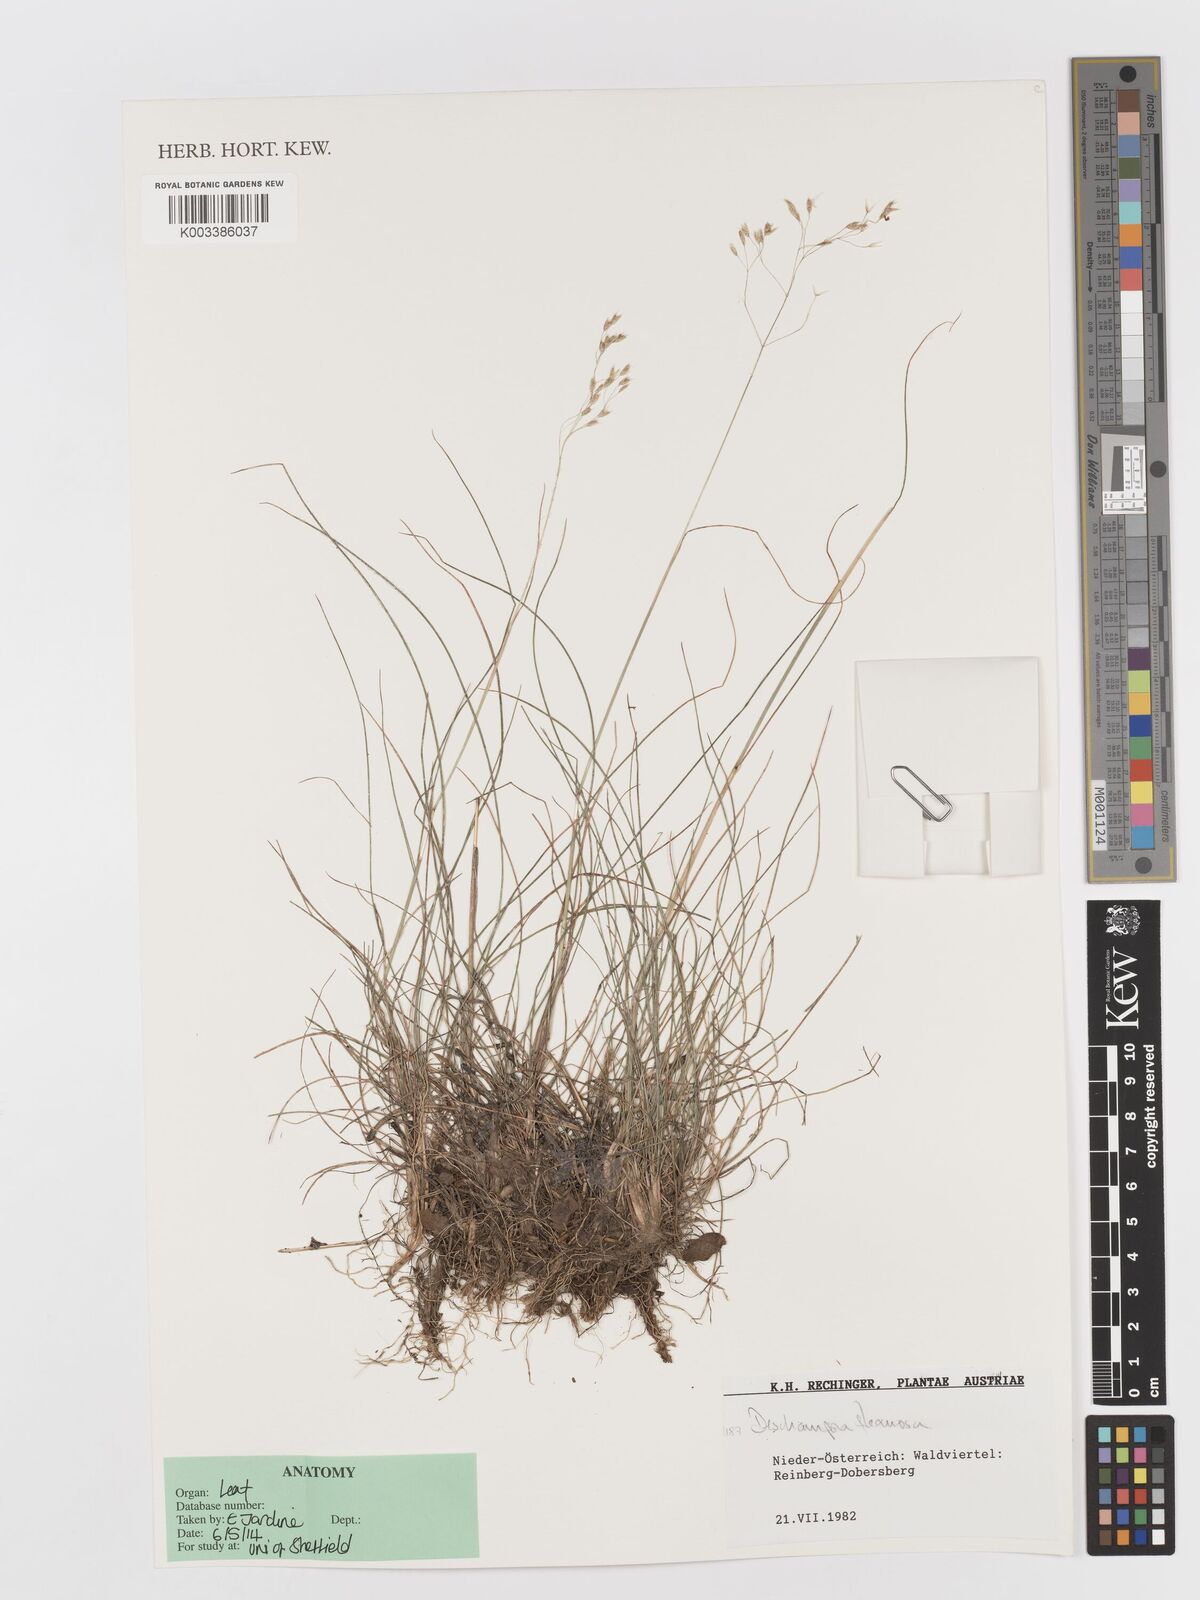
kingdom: Plantae
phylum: Tracheophyta
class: Liliopsida
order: Poales
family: Poaceae
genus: Avenella
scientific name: Avenella flexuosa
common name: Wavy hairgrass
